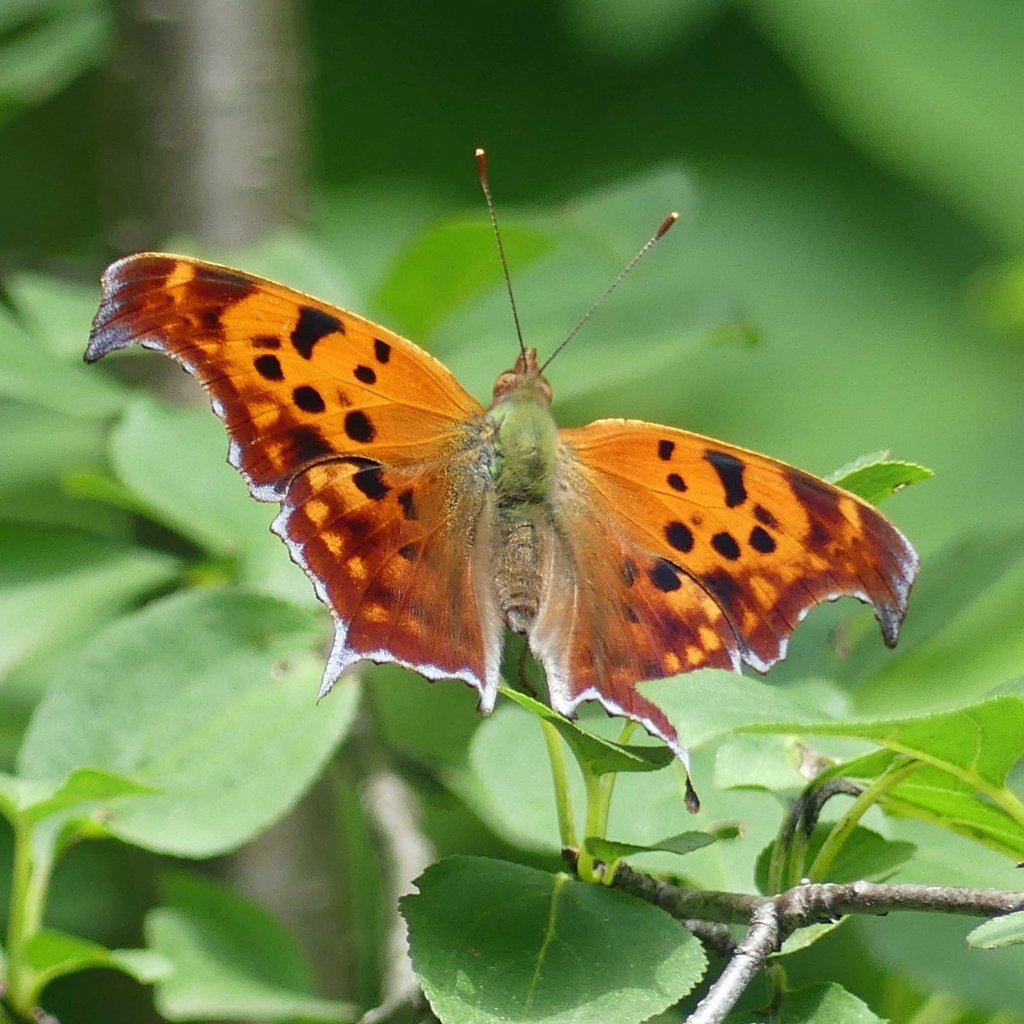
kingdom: Animalia
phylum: Arthropoda
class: Insecta
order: Lepidoptera
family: Nymphalidae
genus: Polygonia
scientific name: Polygonia interrogationis
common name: Question Mark
